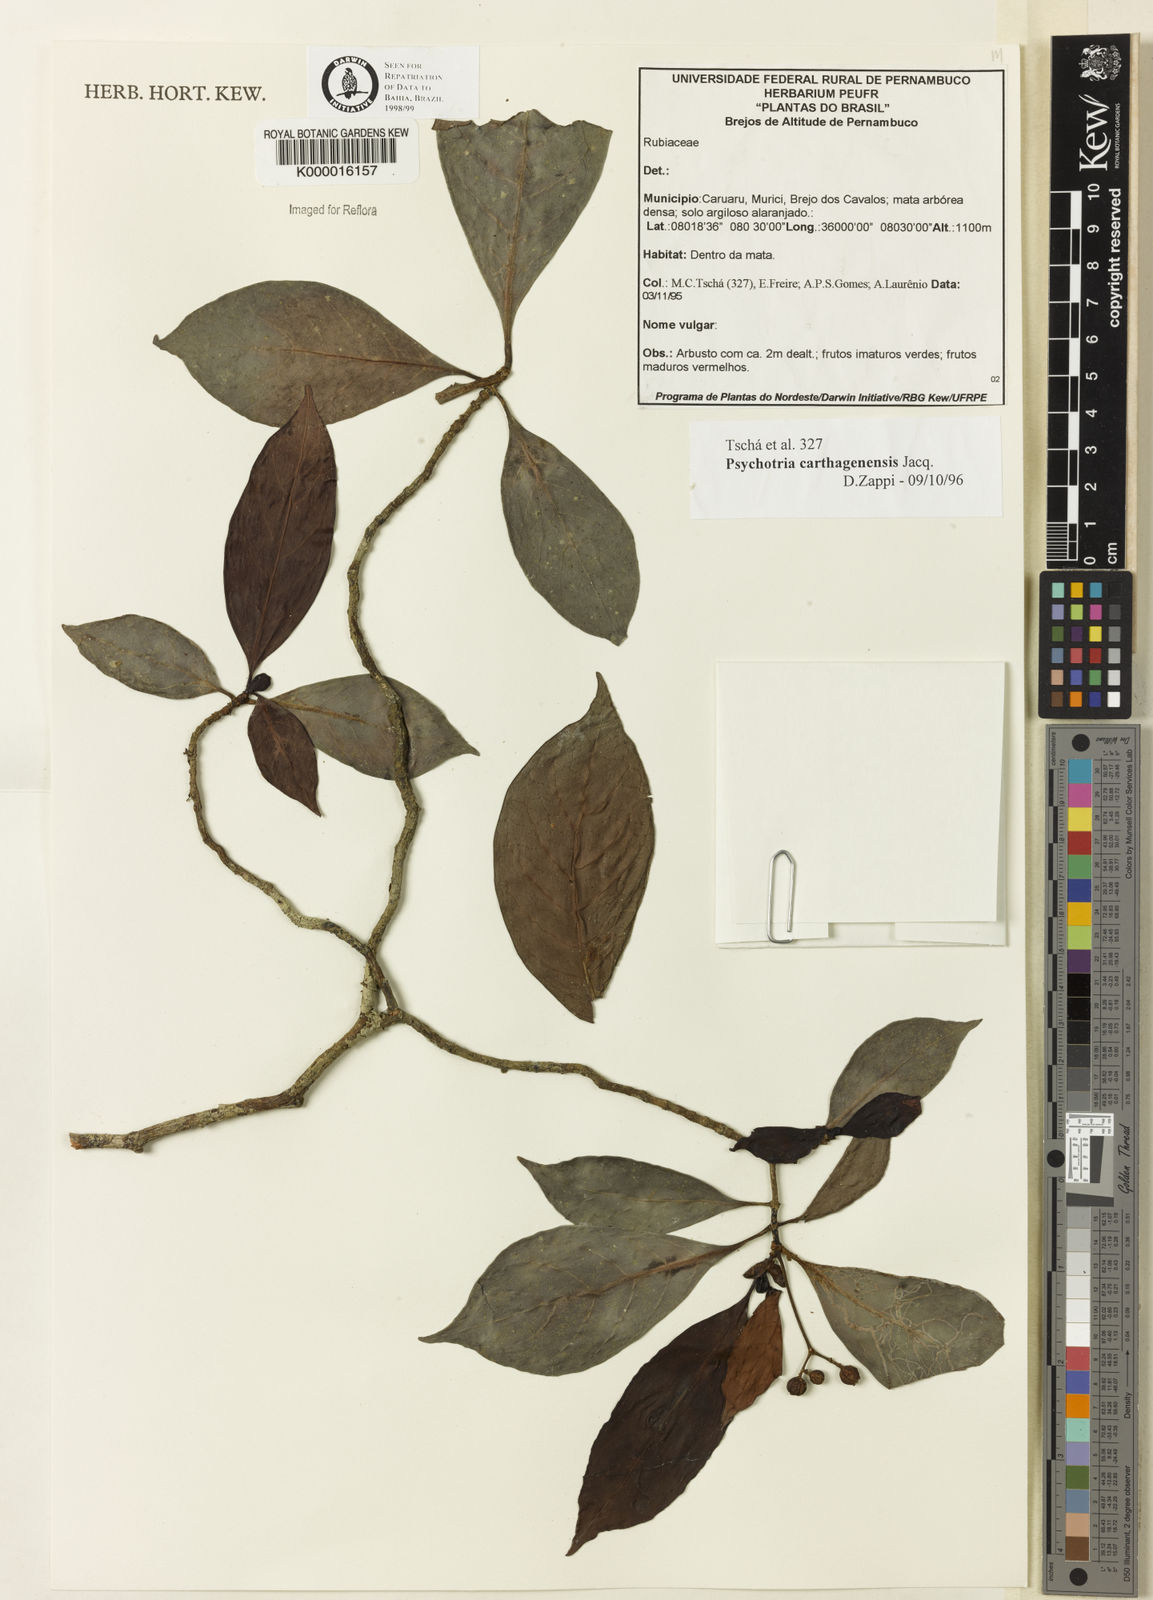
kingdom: Plantae
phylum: Tracheophyta
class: Magnoliopsida
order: Gentianales
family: Rubiaceae
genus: Psychotria
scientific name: Psychotria carthagenensis
